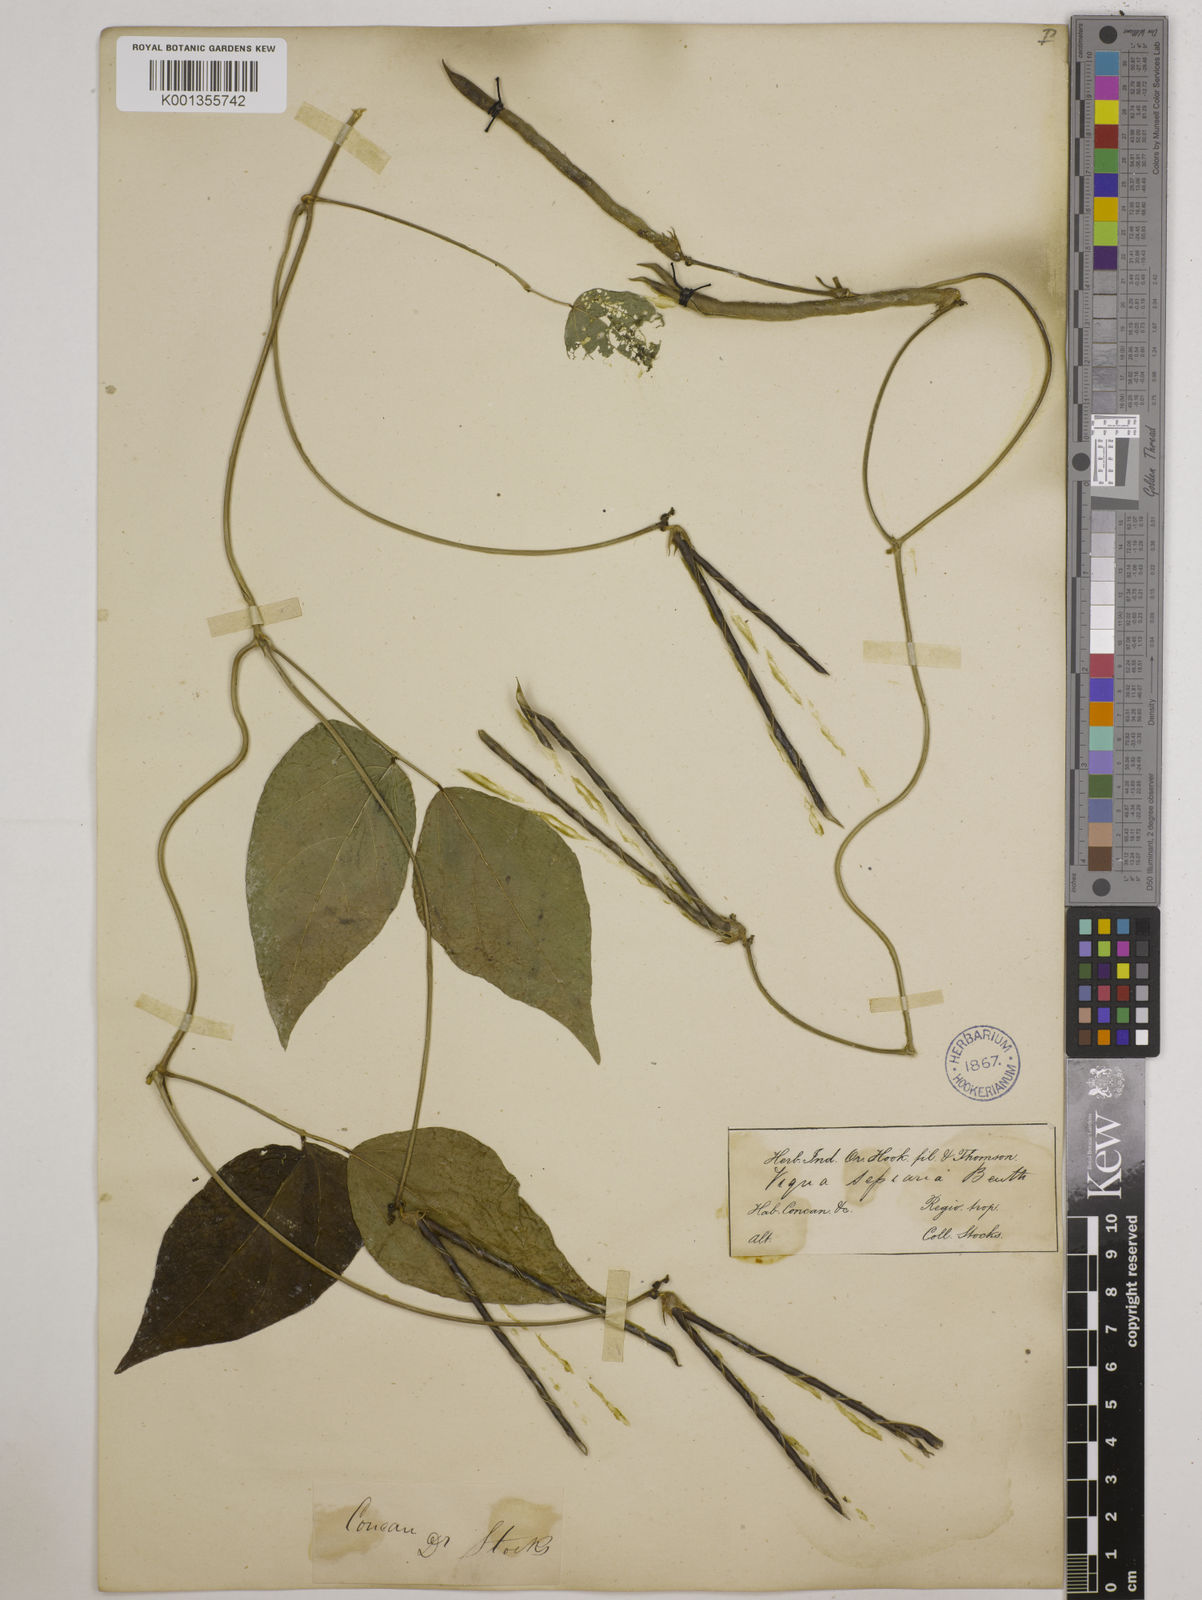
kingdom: Plantae
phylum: Tracheophyta
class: Magnoliopsida
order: Fabales
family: Fabaceae
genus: Vigna
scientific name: Vigna vexillata
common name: Zombi pea
